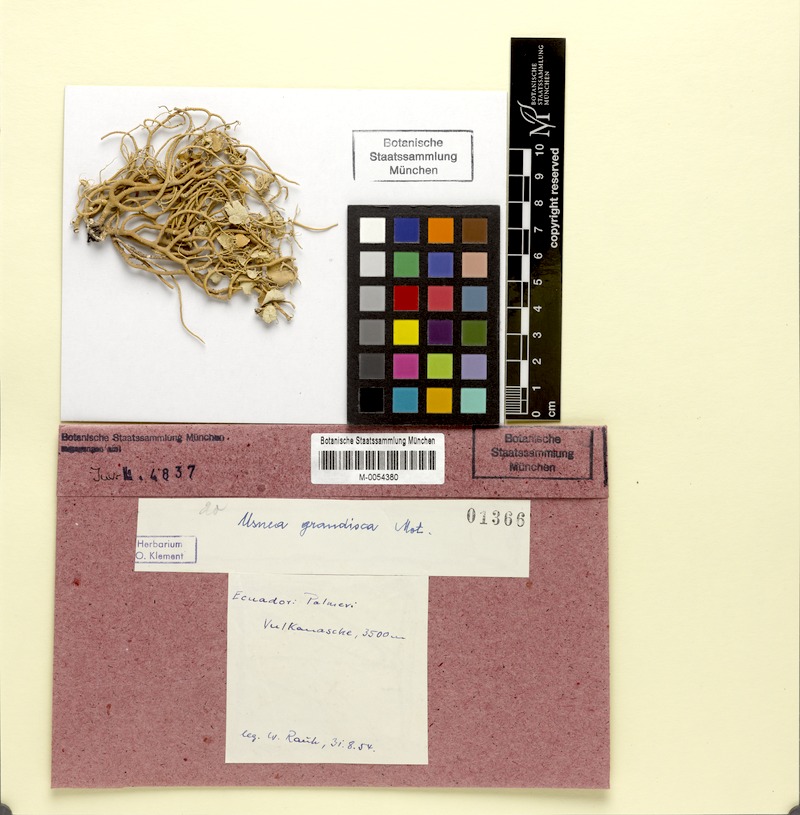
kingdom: Fungi
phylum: Ascomycota
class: Lecanoromycetes
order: Lecanorales
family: Parmeliaceae
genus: Usnea
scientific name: Usnea grandis
